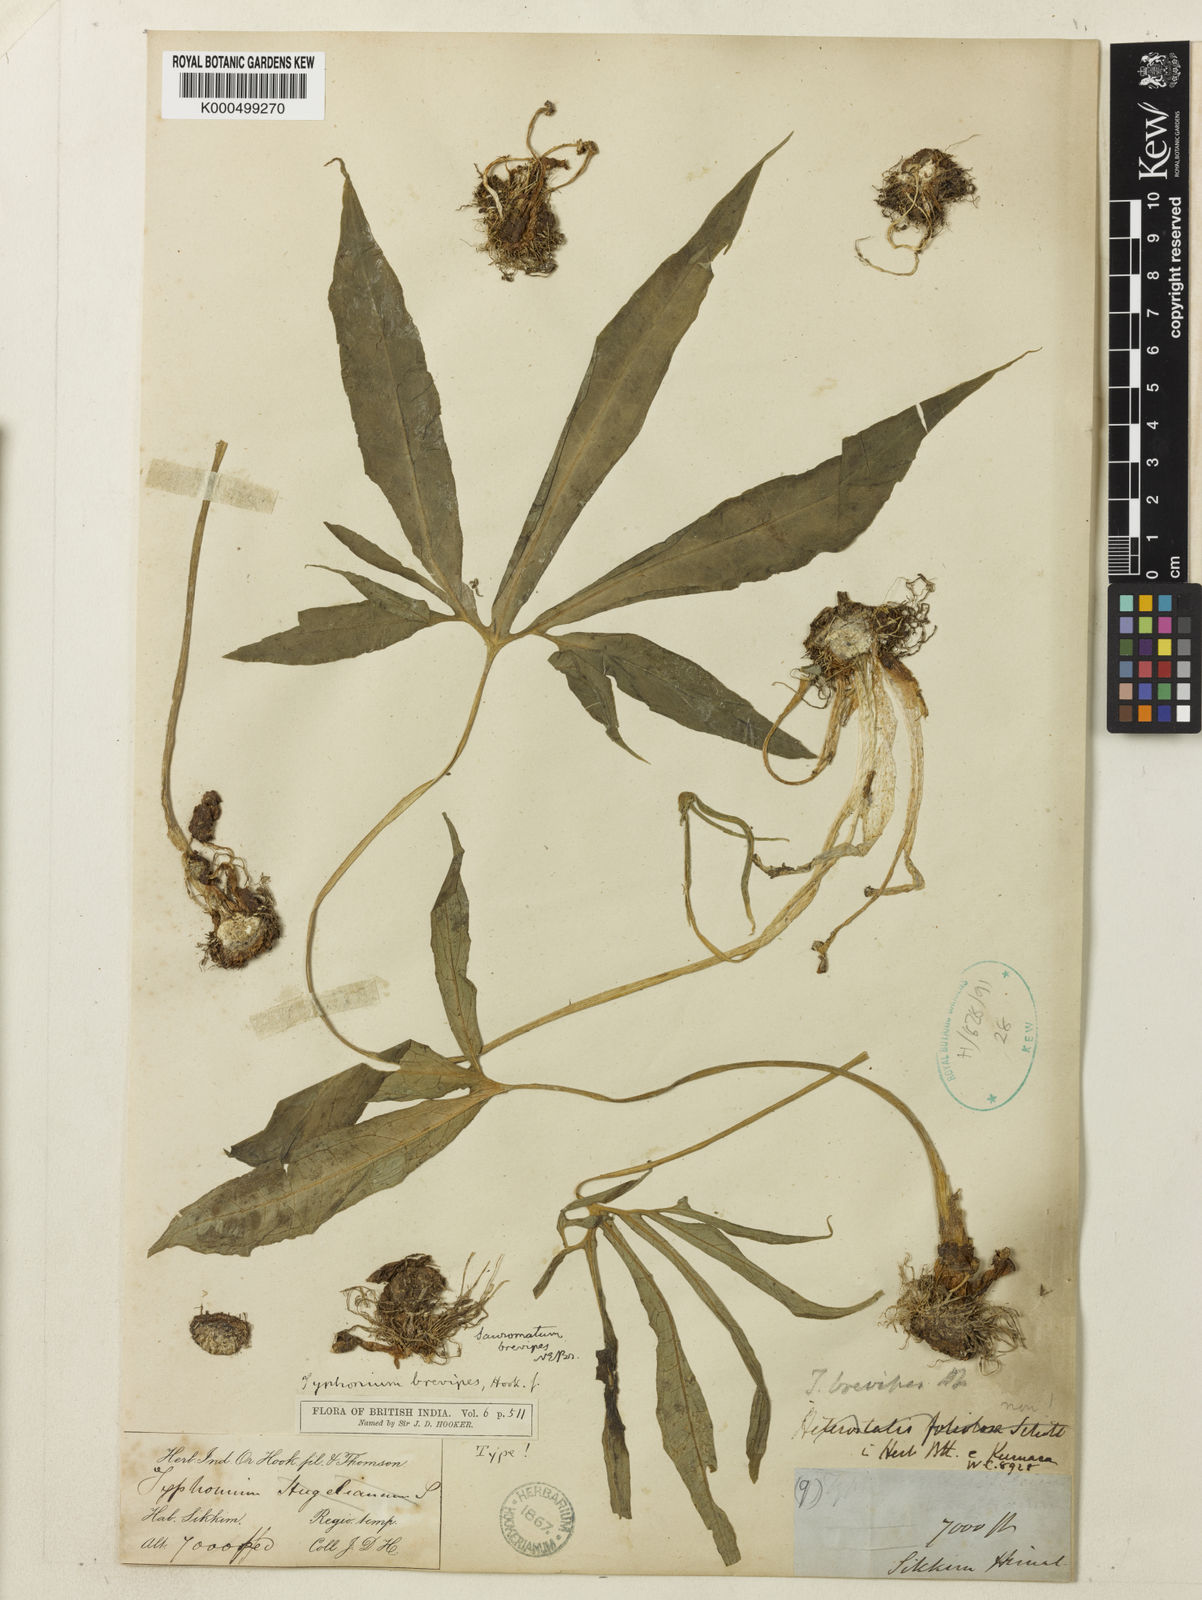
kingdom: Plantae
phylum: Tracheophyta
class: Liliopsida
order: Alismatales
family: Araceae
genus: Sauromatum
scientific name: Sauromatum brevipes
